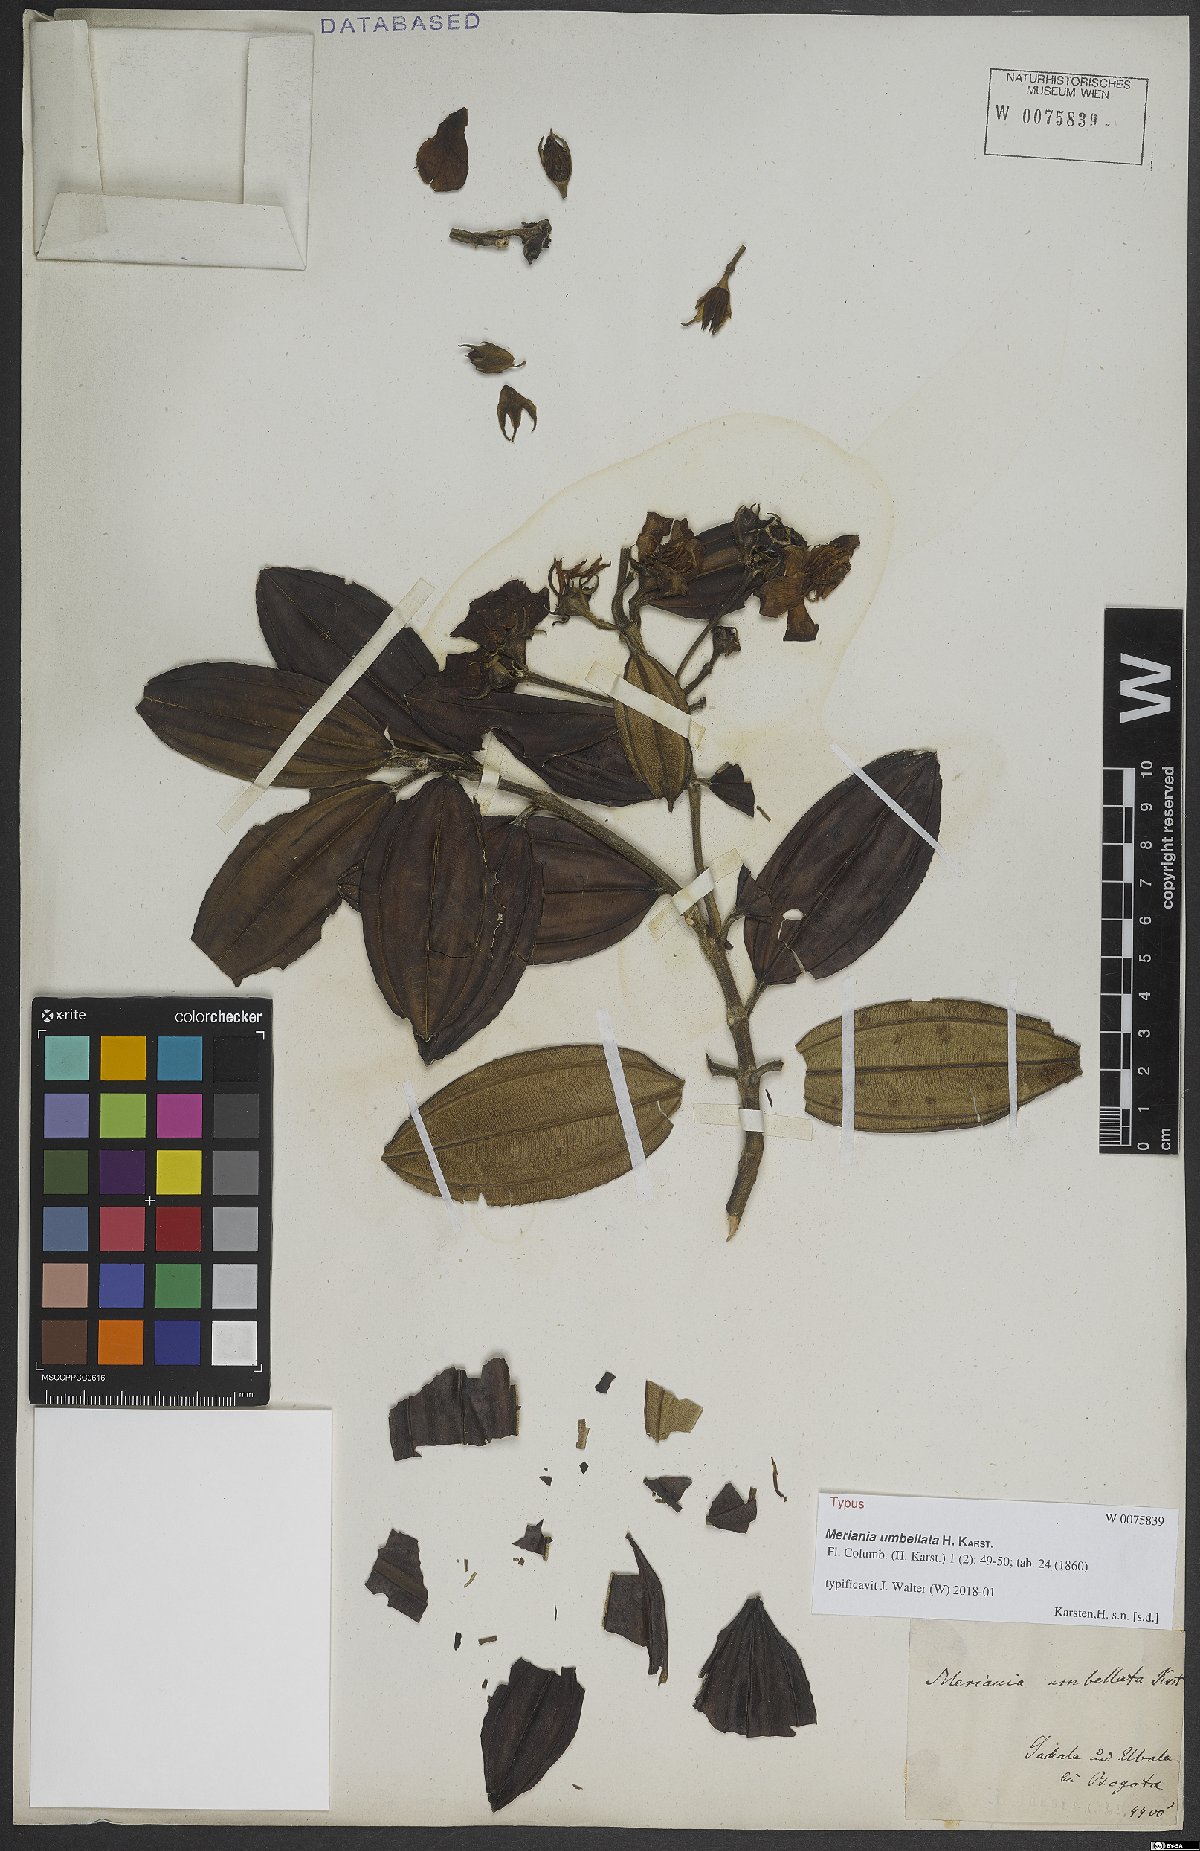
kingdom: Plantae
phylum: Tracheophyta
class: Magnoliopsida
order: Myrtales
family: Melastomataceae
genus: Meriania
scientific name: Meriania speciosa
